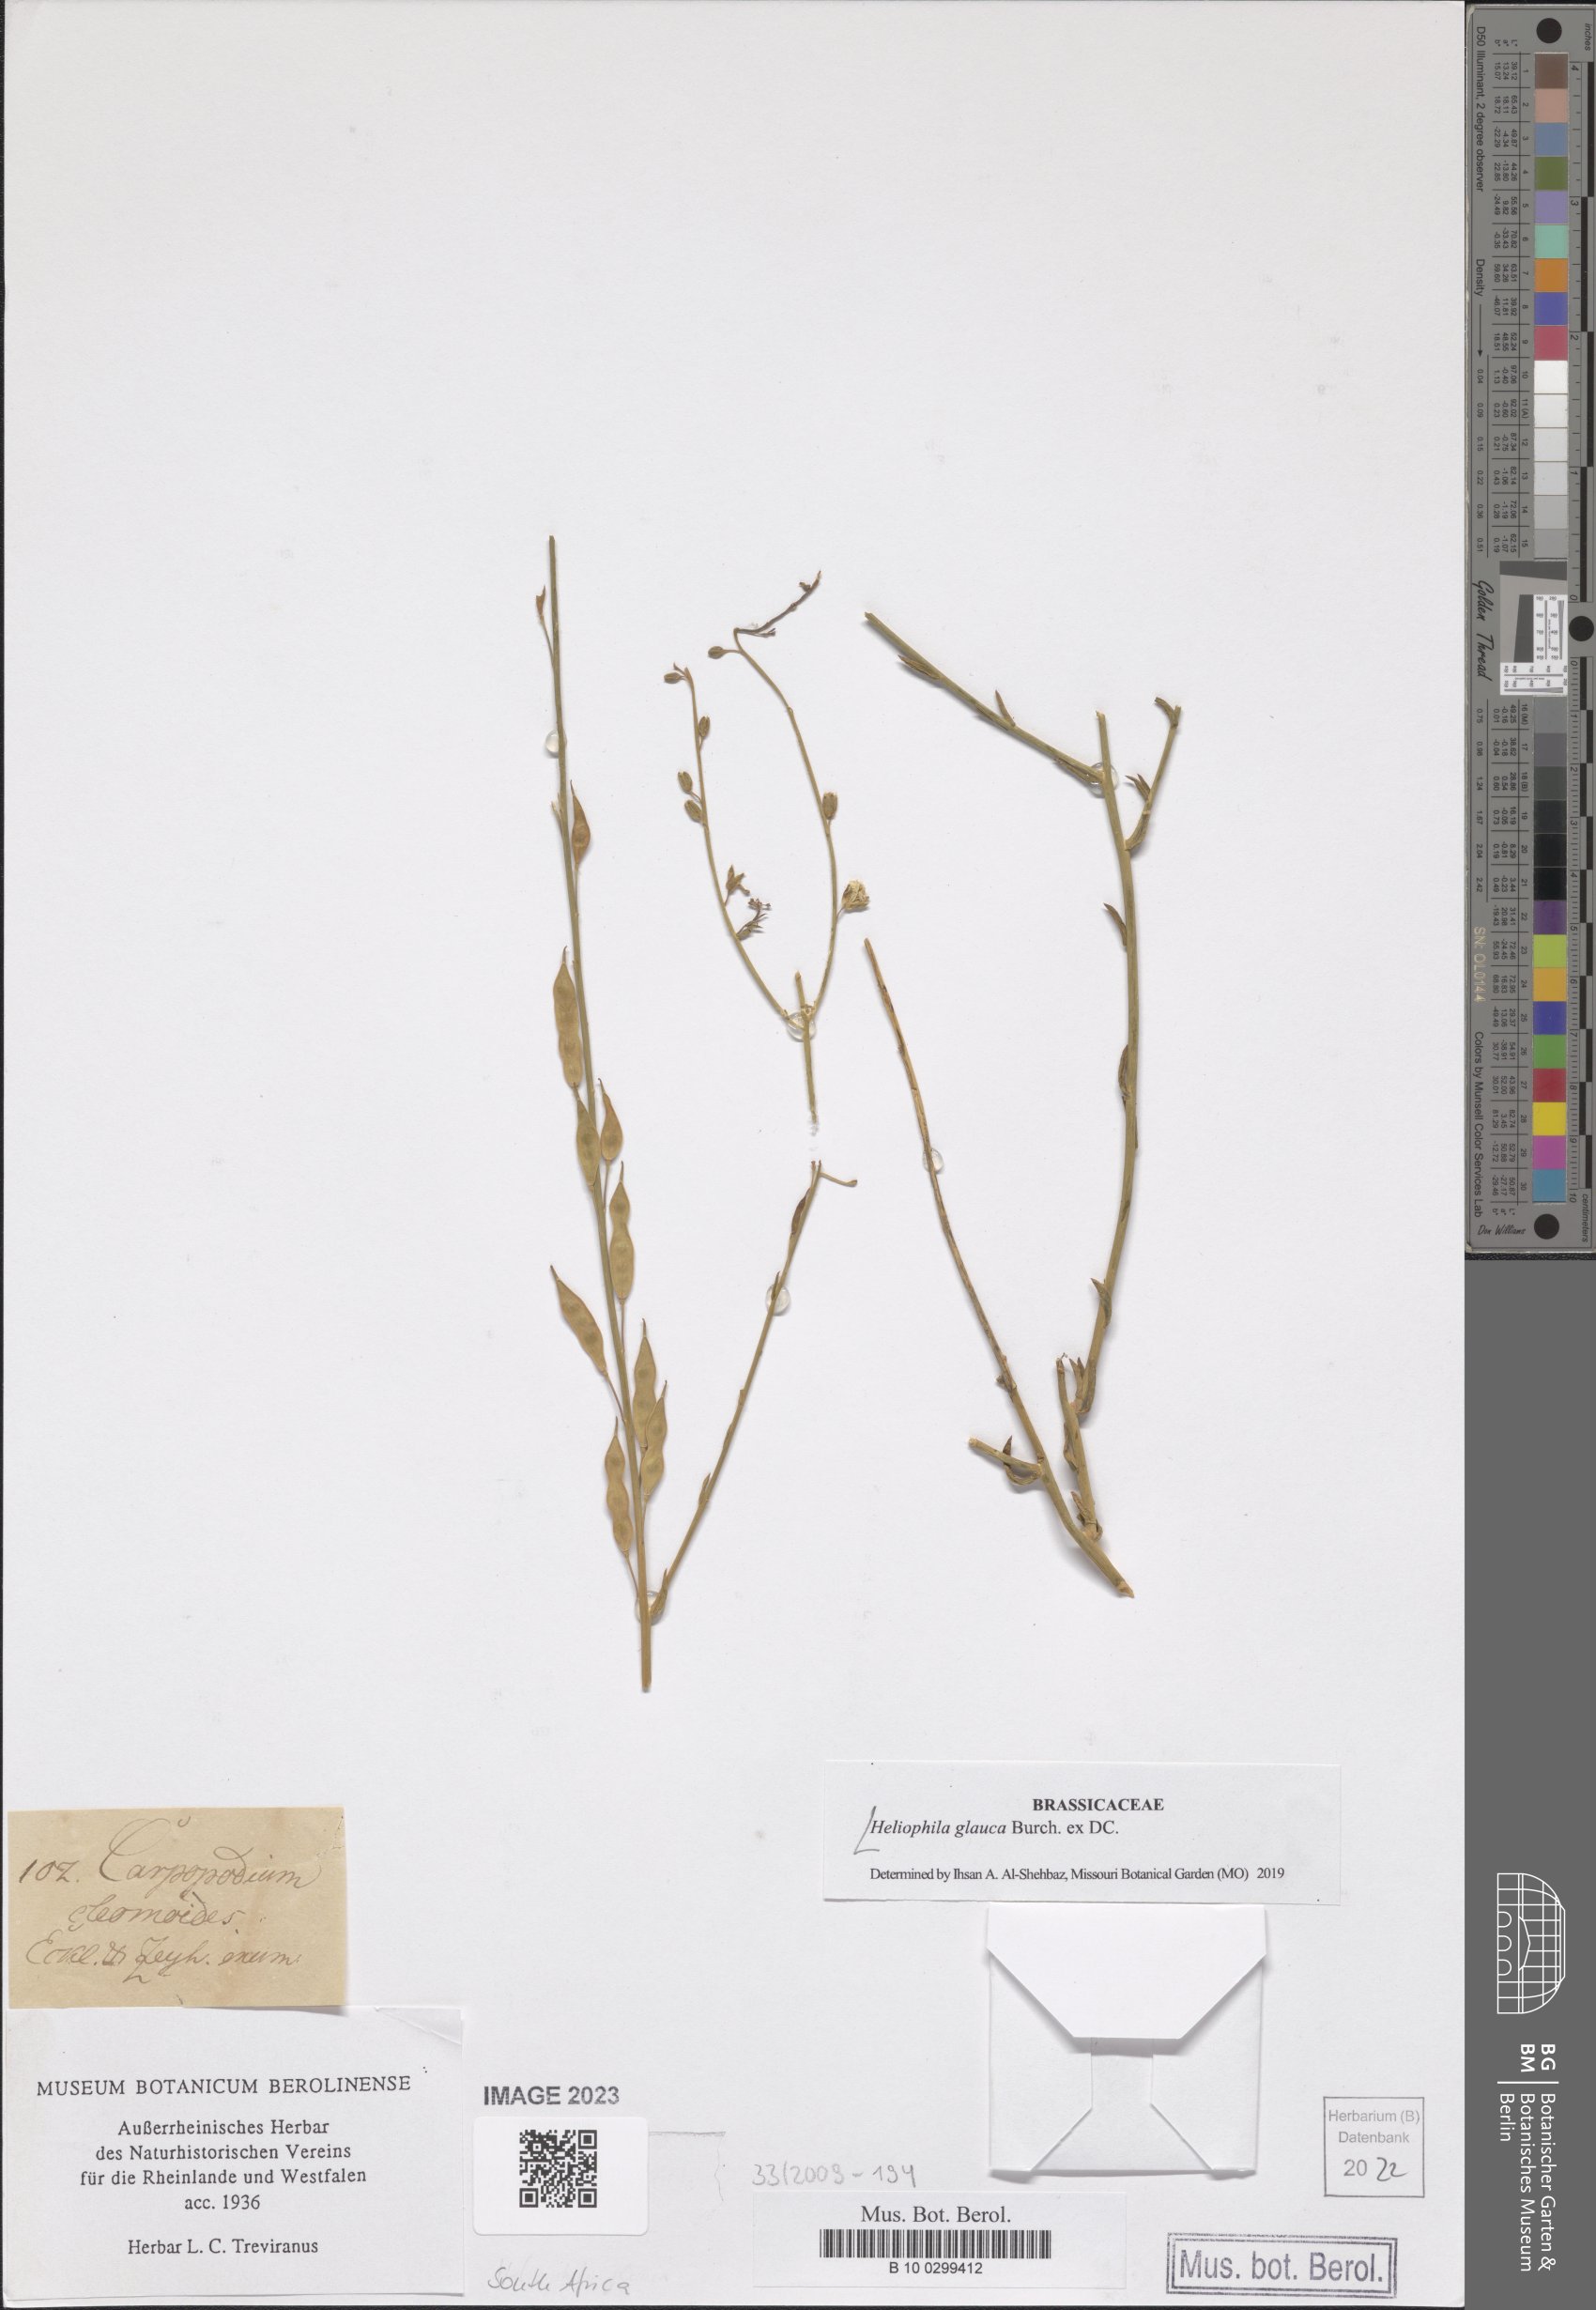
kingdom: Plantae
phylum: Tracheophyta
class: Magnoliopsida
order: Brassicales
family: Brassicaceae
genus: Heliophila
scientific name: Heliophila glauca
